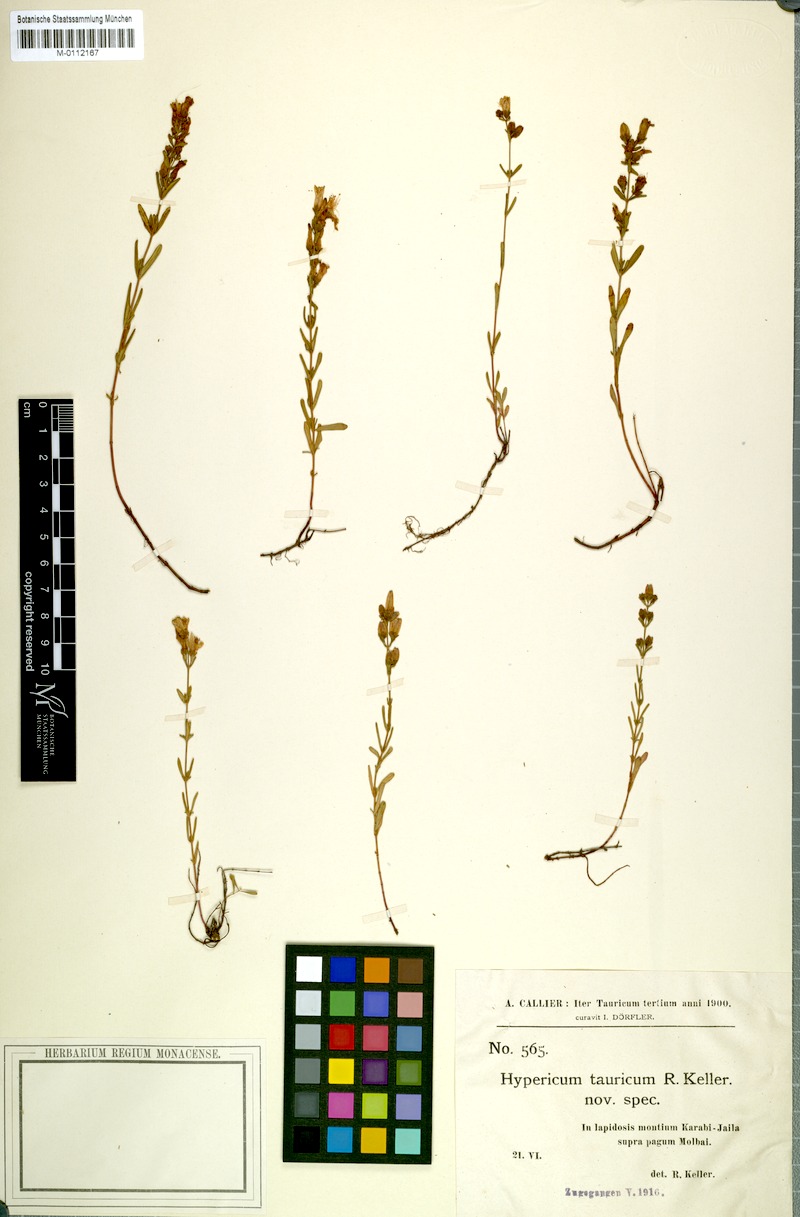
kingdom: Plantae
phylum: Tracheophyta
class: Magnoliopsida
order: Malpighiales
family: Hypericaceae
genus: Hypericum
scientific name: Hypericum linarioides
